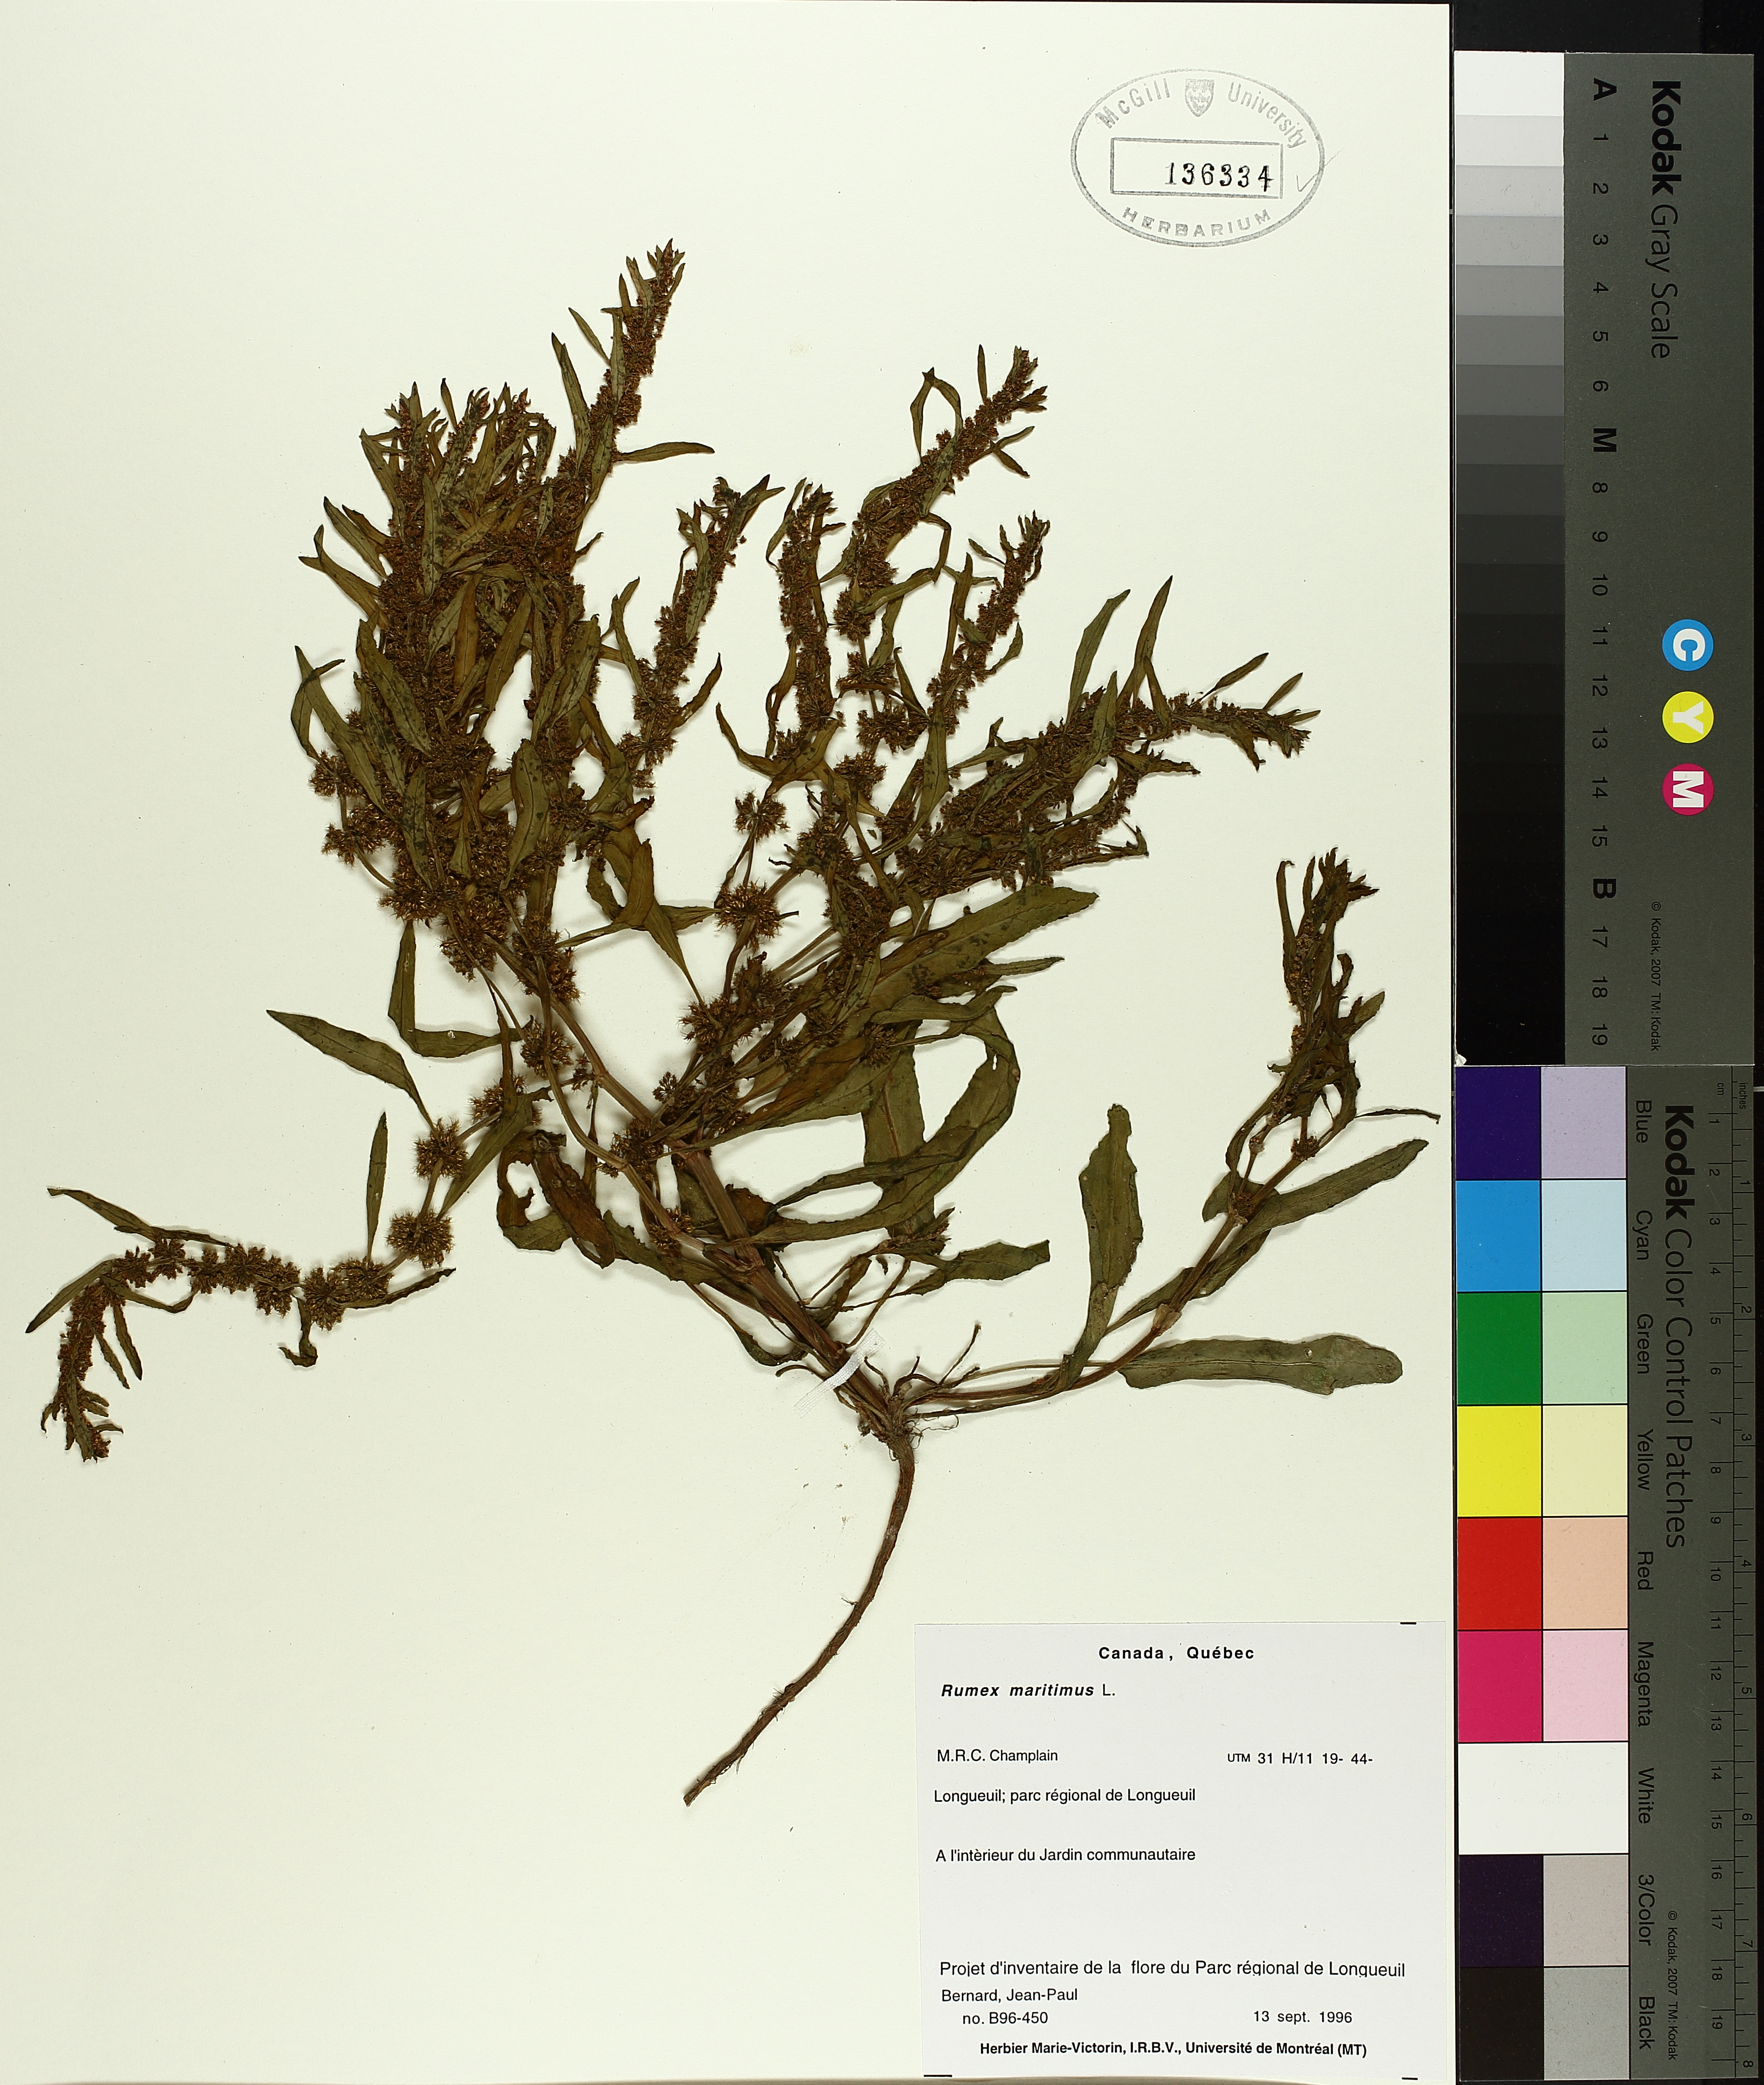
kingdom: Plantae
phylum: Tracheophyta
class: Magnoliopsida
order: Caryophyllales
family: Polygonaceae
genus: Rumex
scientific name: Rumex maritimus
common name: Golden dock
